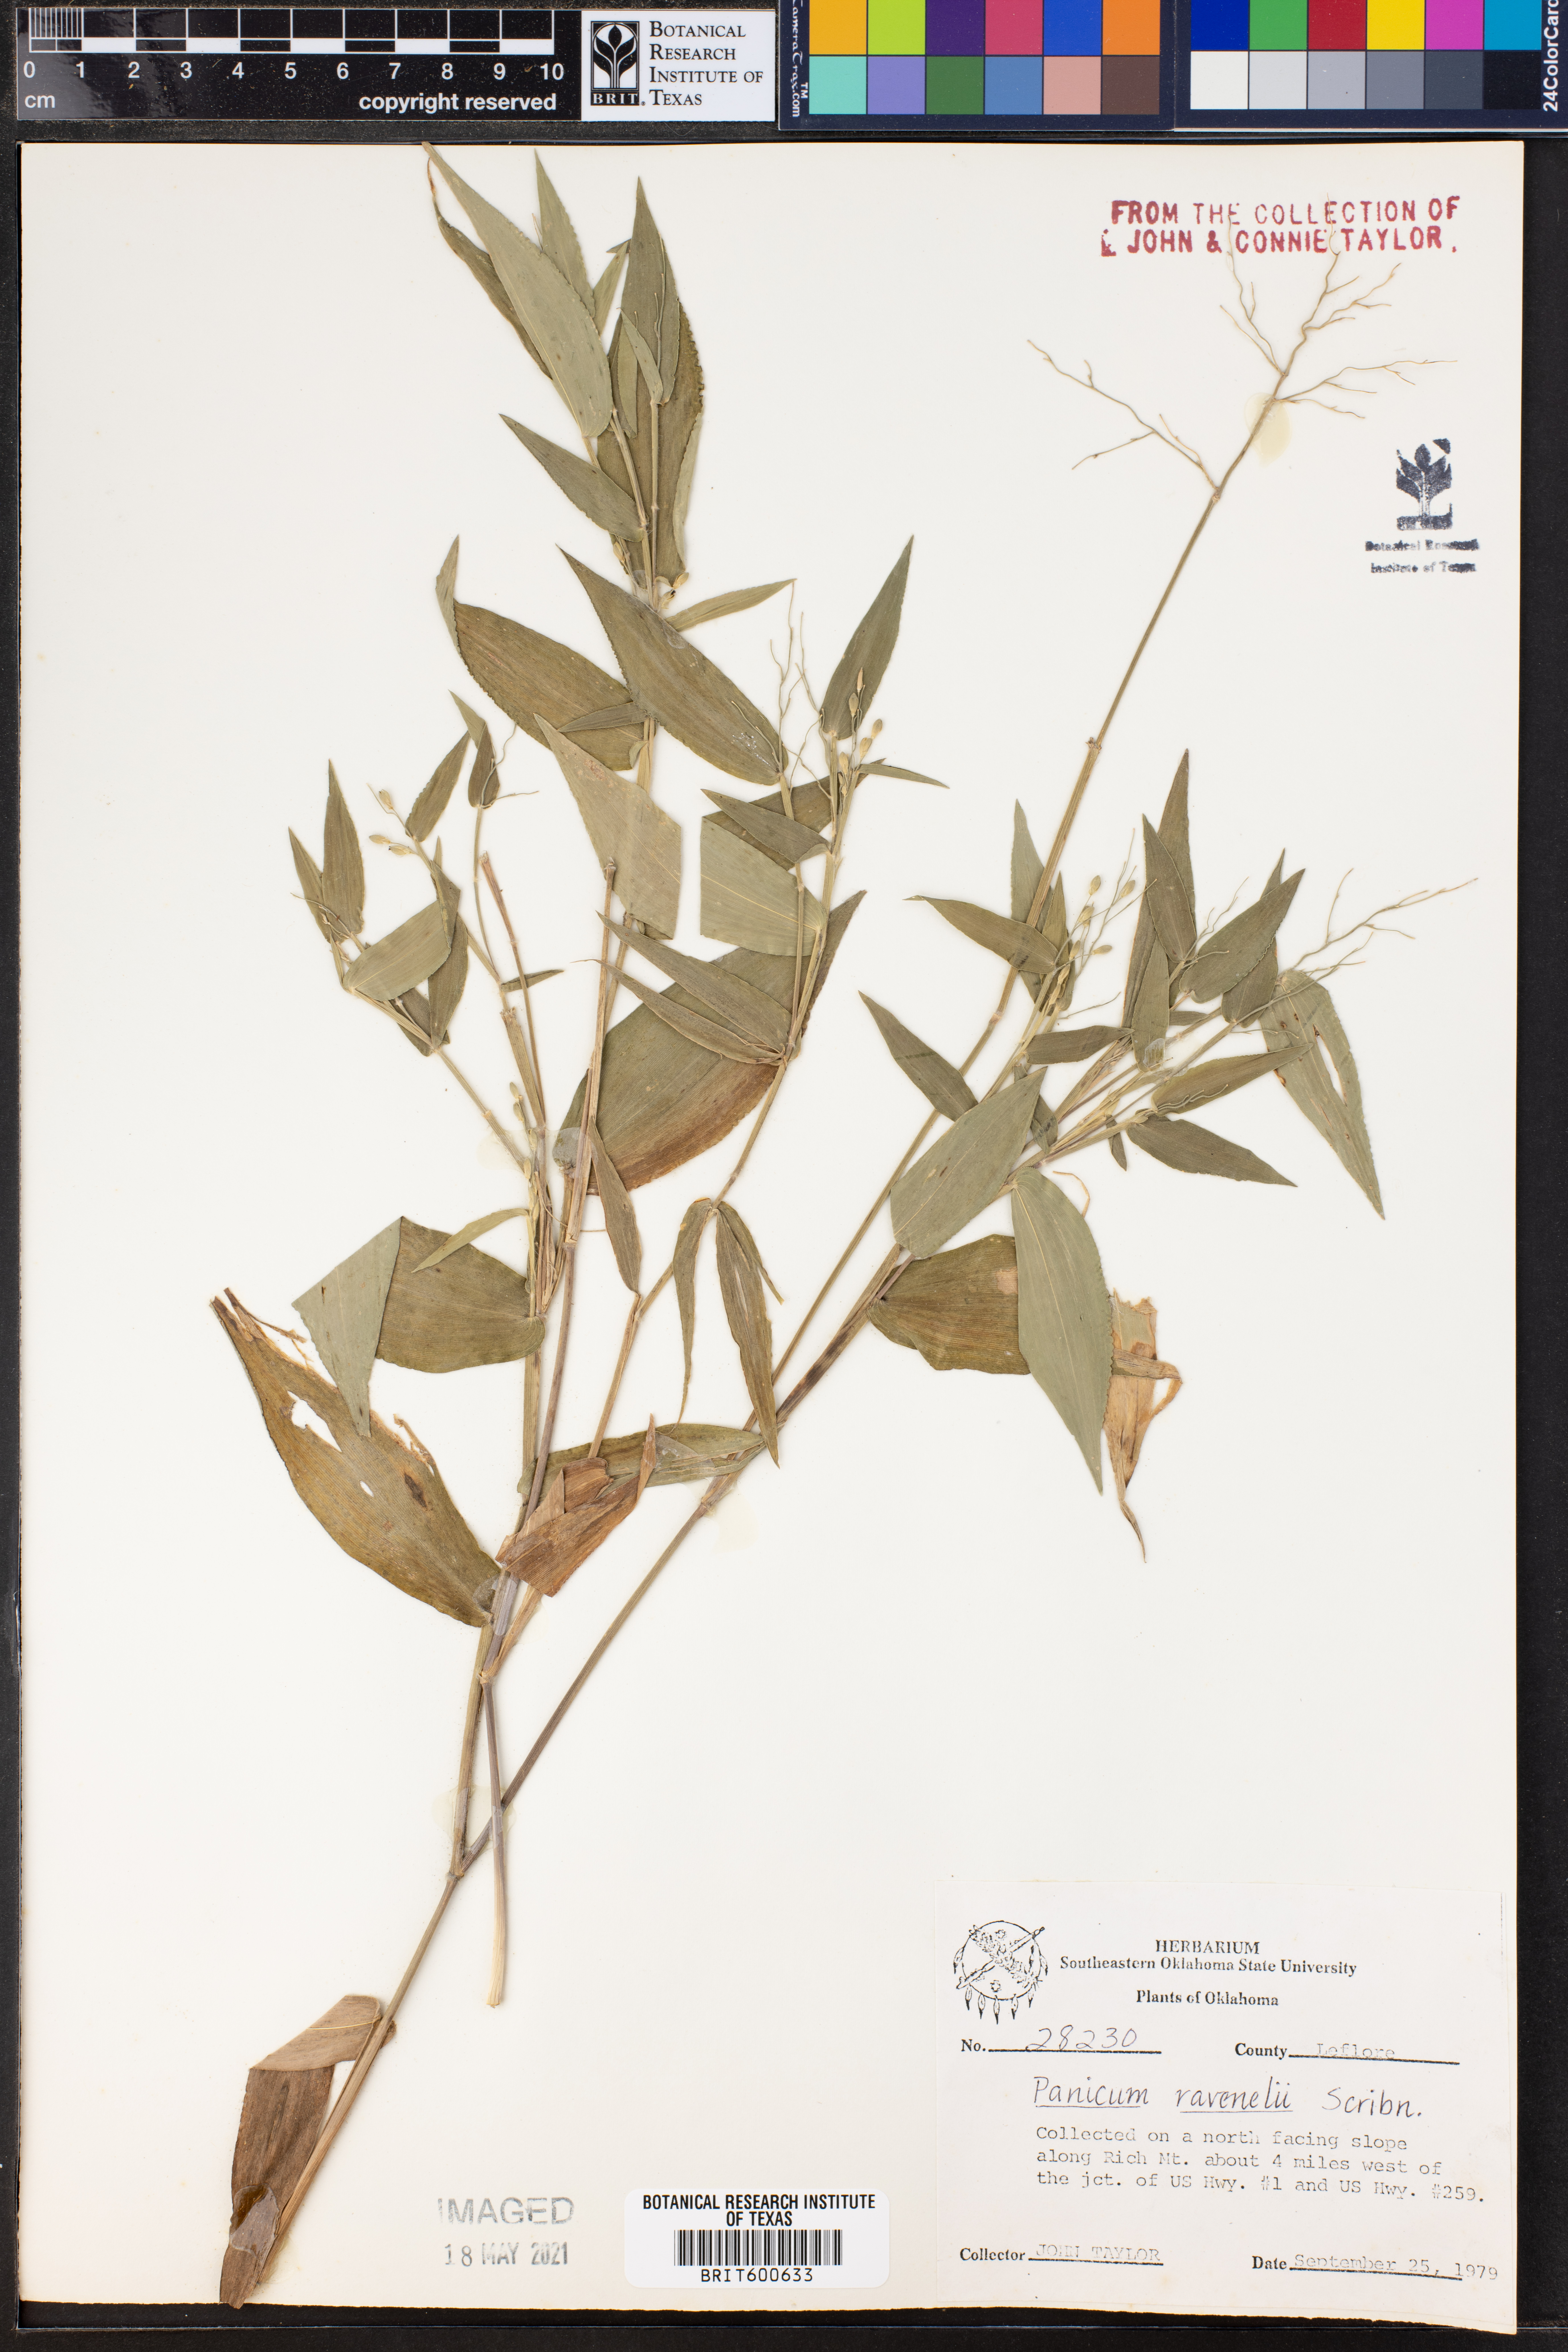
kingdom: Plantae
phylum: Tracheophyta
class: Liliopsida
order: Poales
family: Poaceae
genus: Dichanthelium
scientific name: Dichanthelium ravenelii
